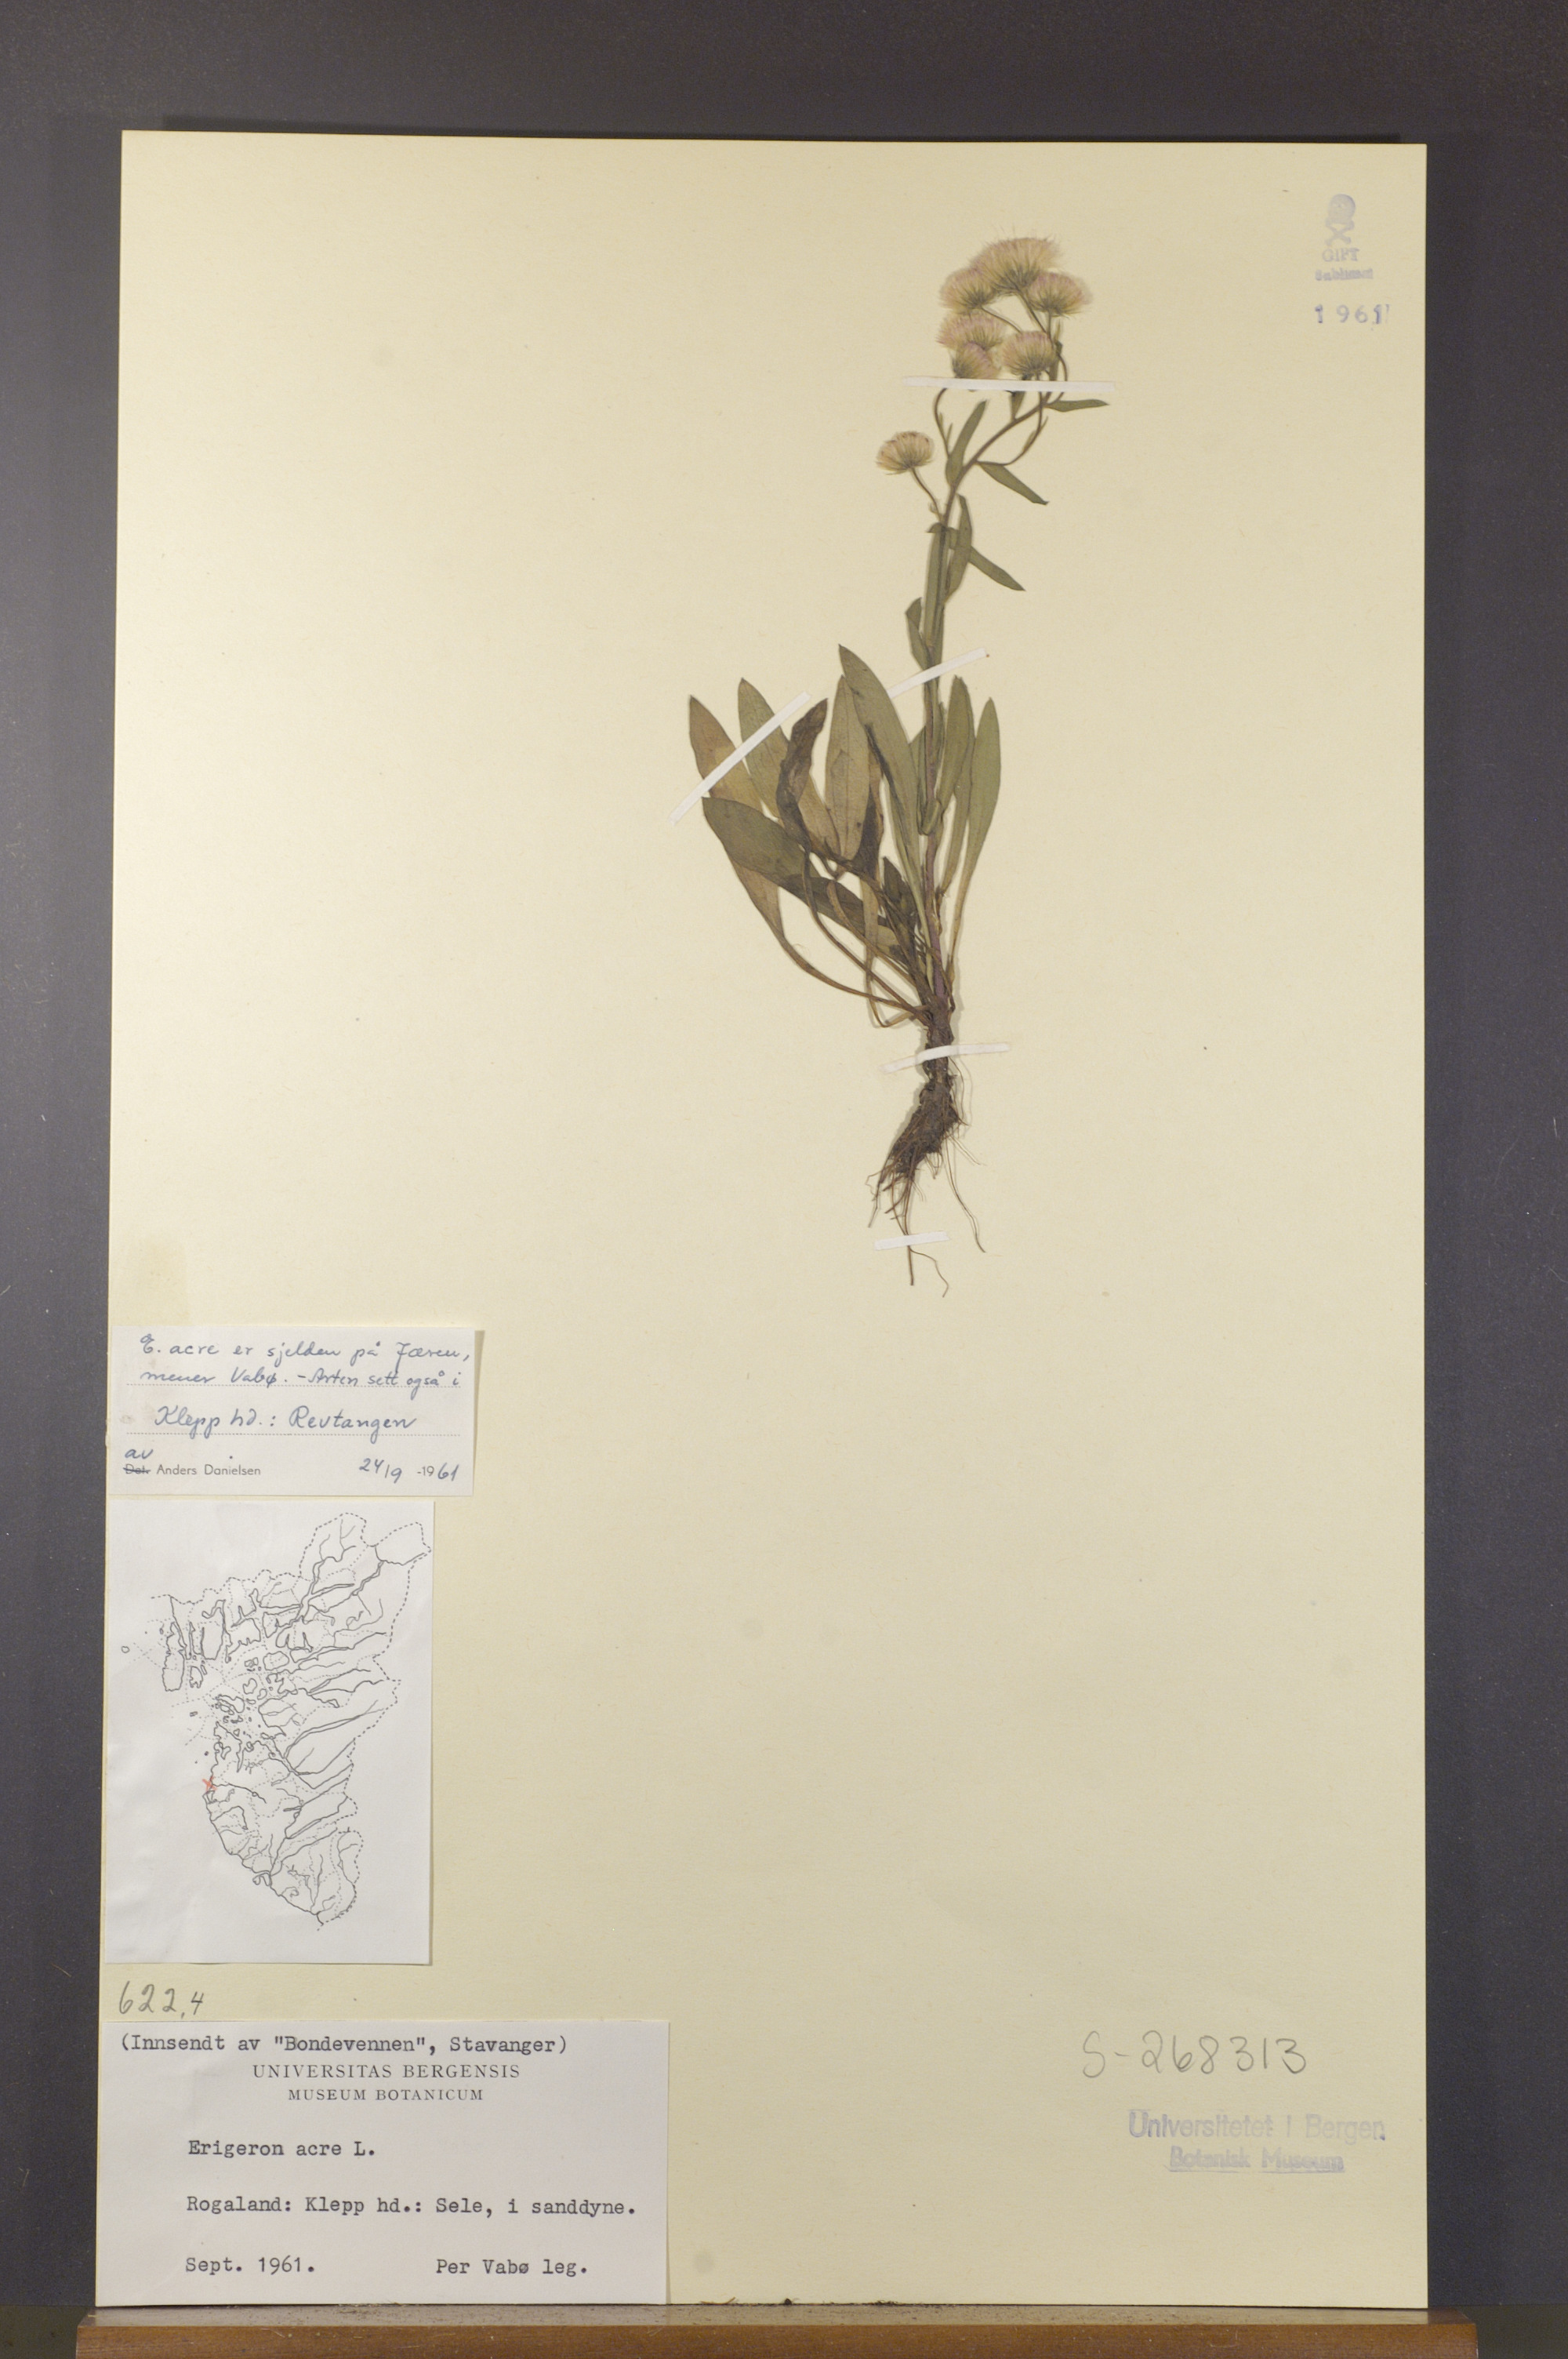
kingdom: Plantae
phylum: Tracheophyta
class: Magnoliopsida
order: Asterales
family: Asteraceae
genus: Erigeron
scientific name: Erigeron acris
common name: Blue fleabane
